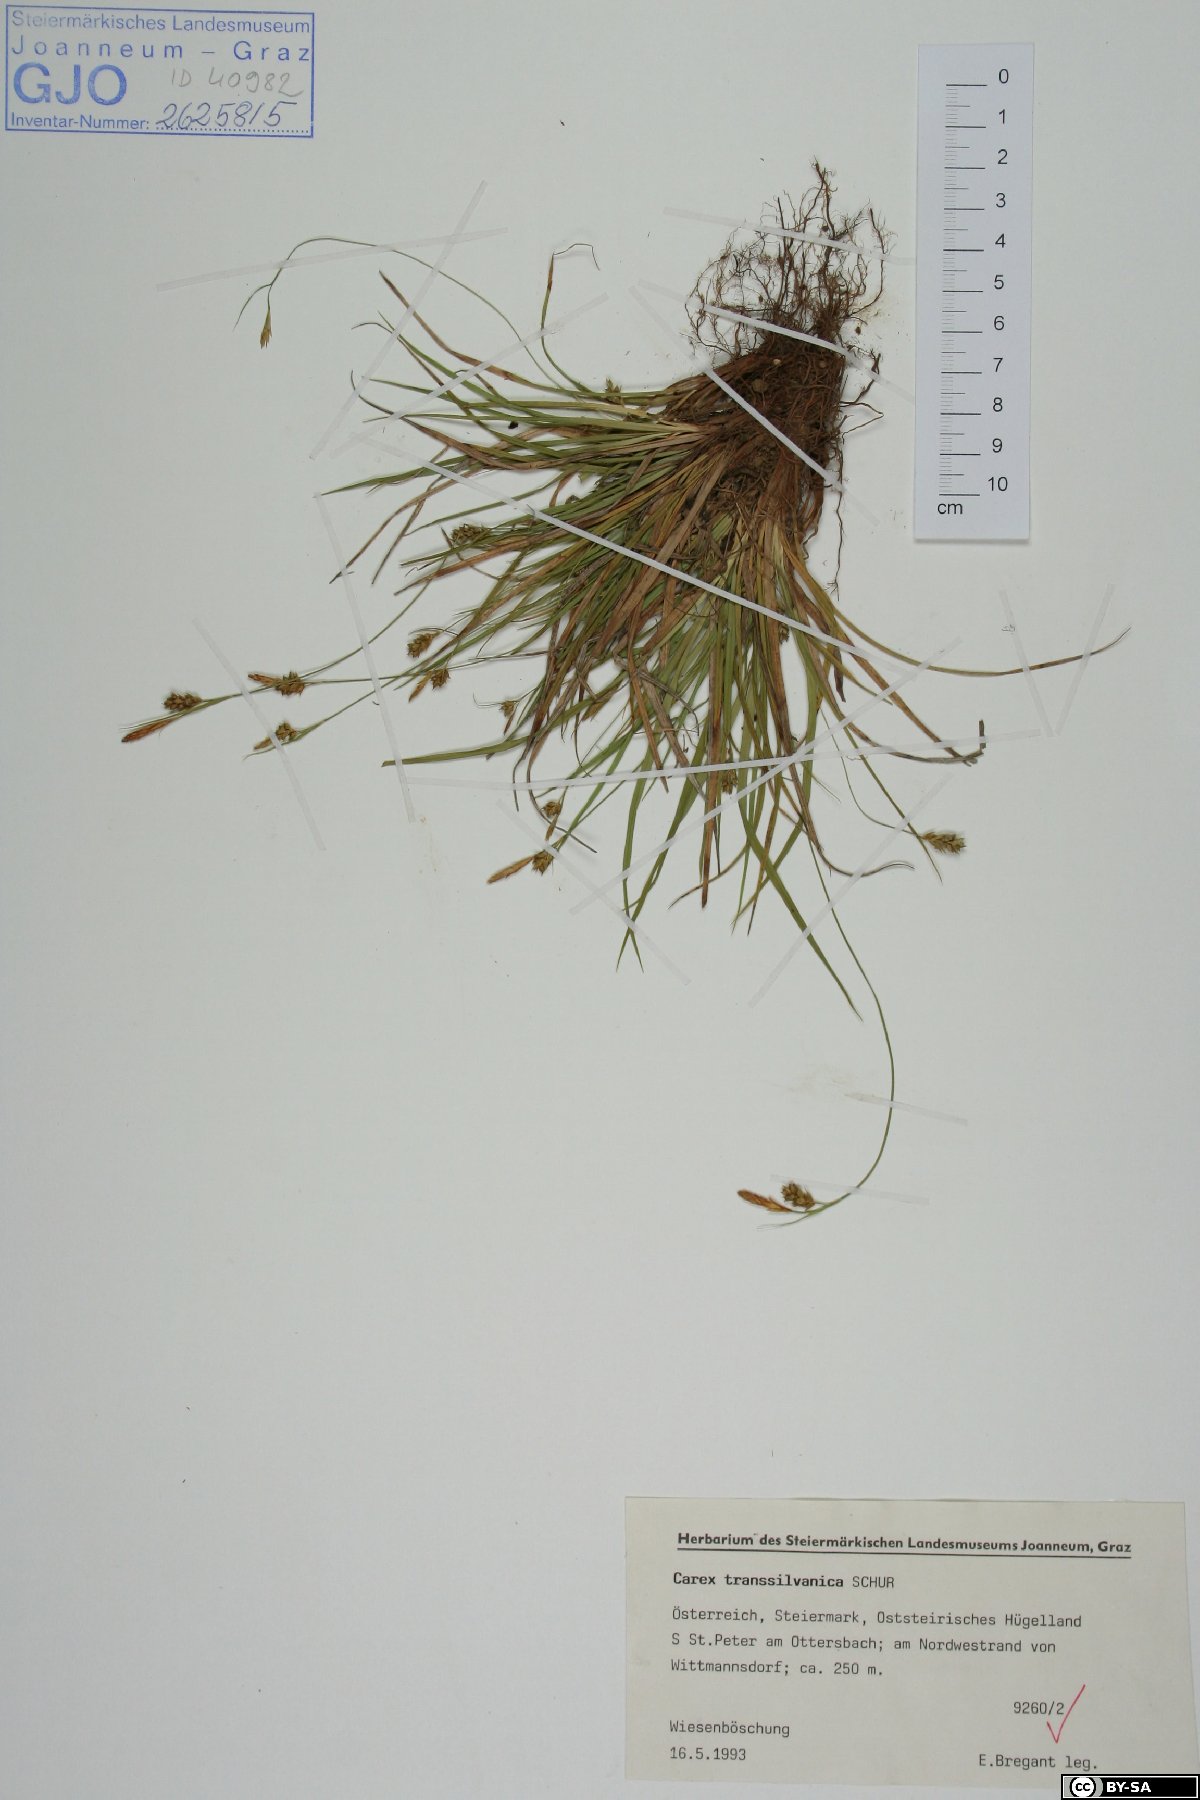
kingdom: Plantae
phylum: Tracheophyta
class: Liliopsida
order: Poales
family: Cyperaceae
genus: Carex
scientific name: Carex depressa
